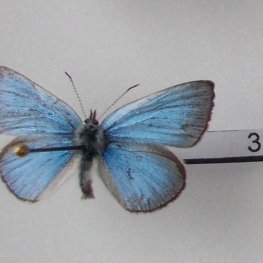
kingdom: Animalia
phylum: Arthropoda
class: Insecta
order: Lepidoptera
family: Lycaenidae
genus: Glaucopsyche
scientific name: Glaucopsyche lygdamus
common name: Silvery Blue
